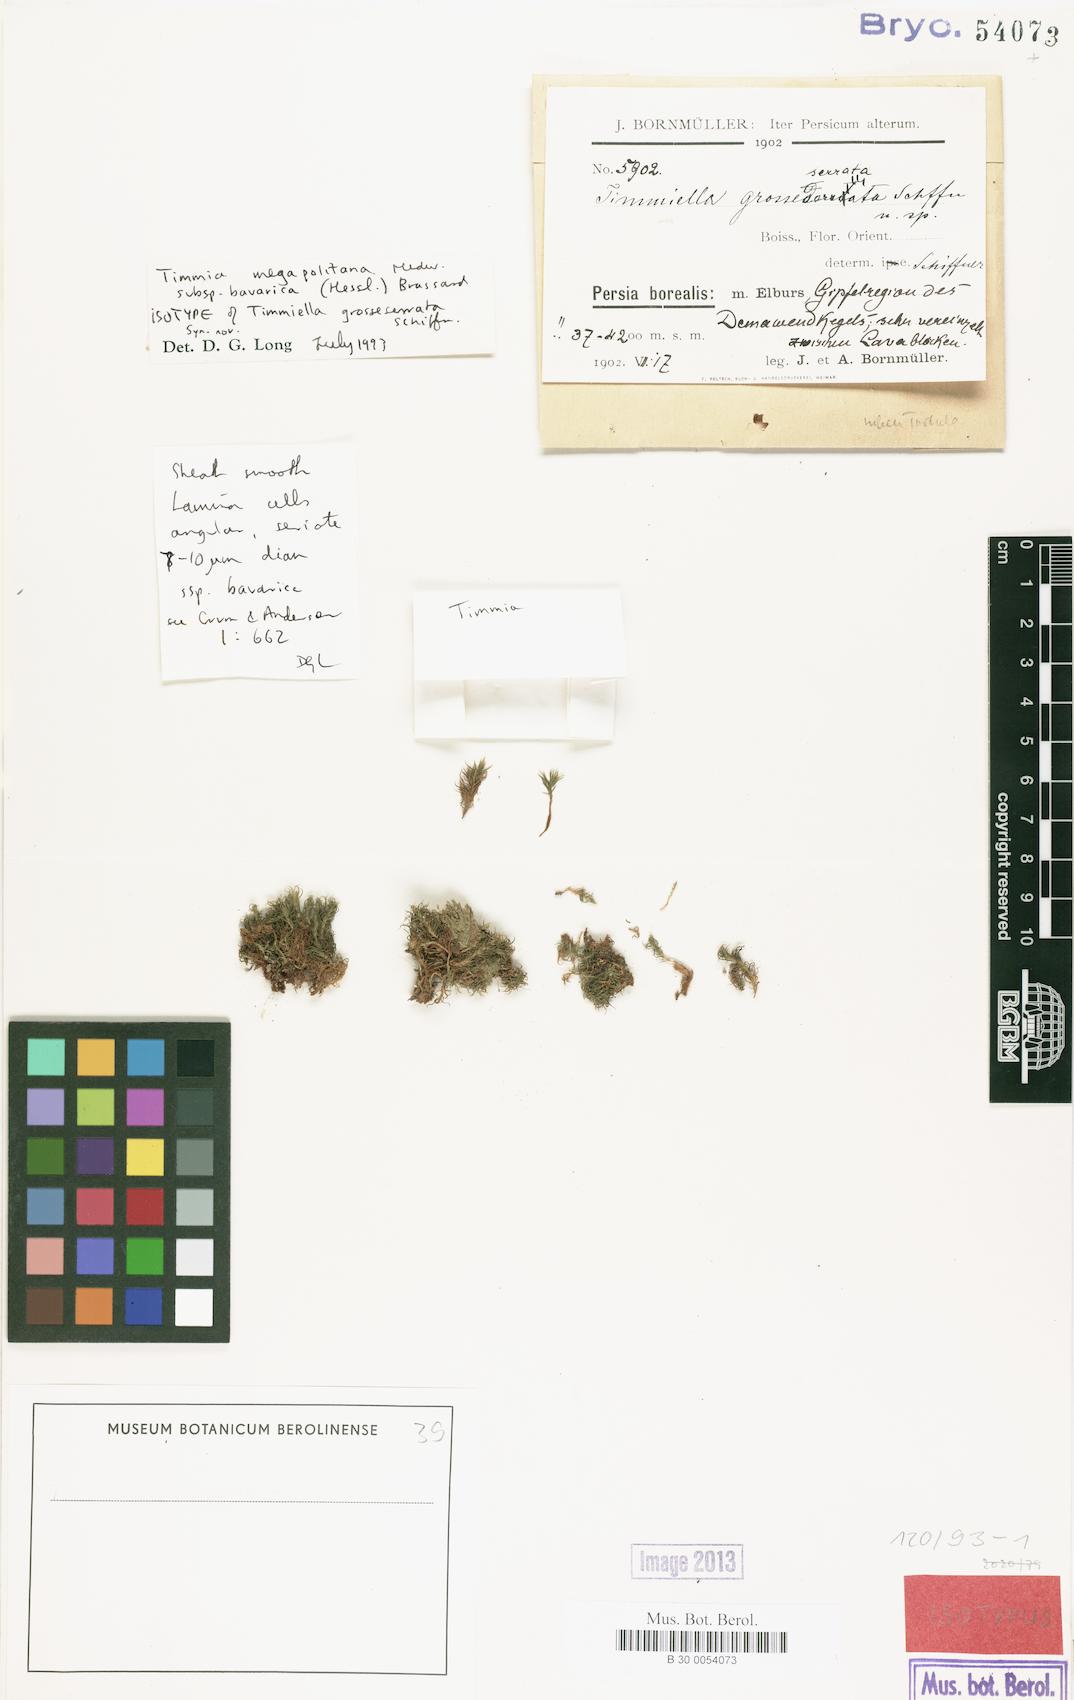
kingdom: Plantae
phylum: Bryophyta
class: Bryopsida
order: Timmiales
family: Timmiaceae
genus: Timmia
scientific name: Timmia bavarica
